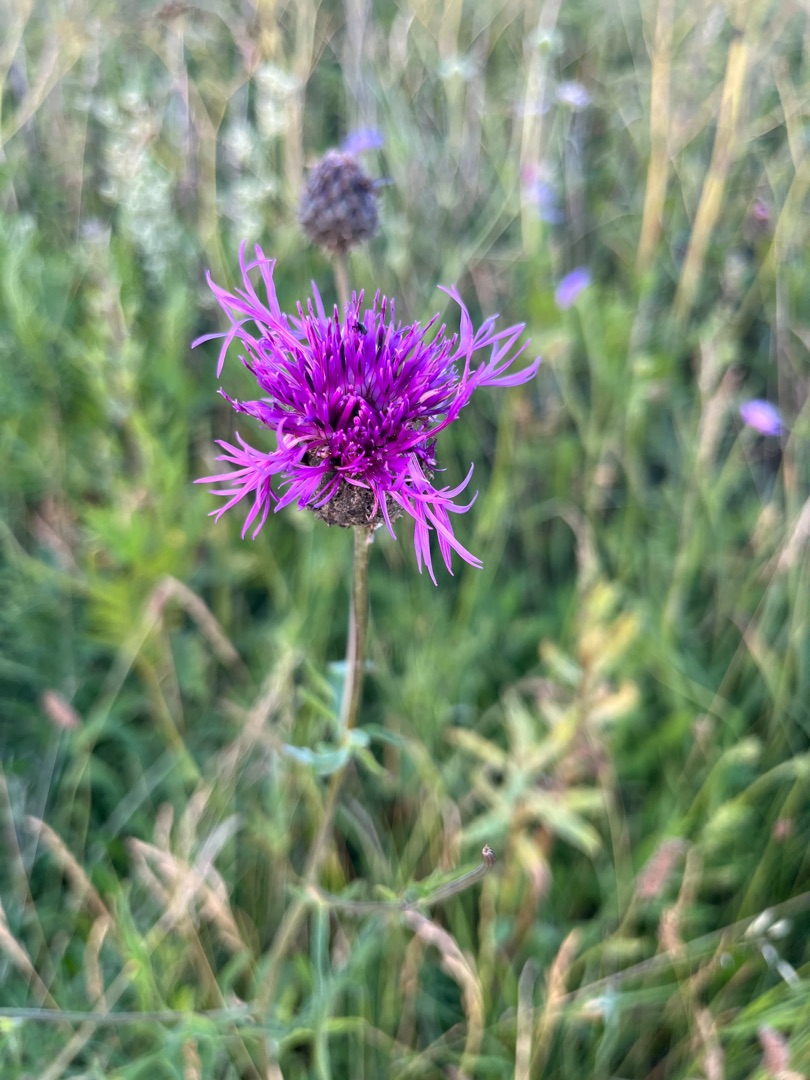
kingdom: Plantae
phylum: Tracheophyta
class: Magnoliopsida
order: Asterales
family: Asteraceae
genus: Centaurea
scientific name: Centaurea scabiosa
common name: Stor knopurt
